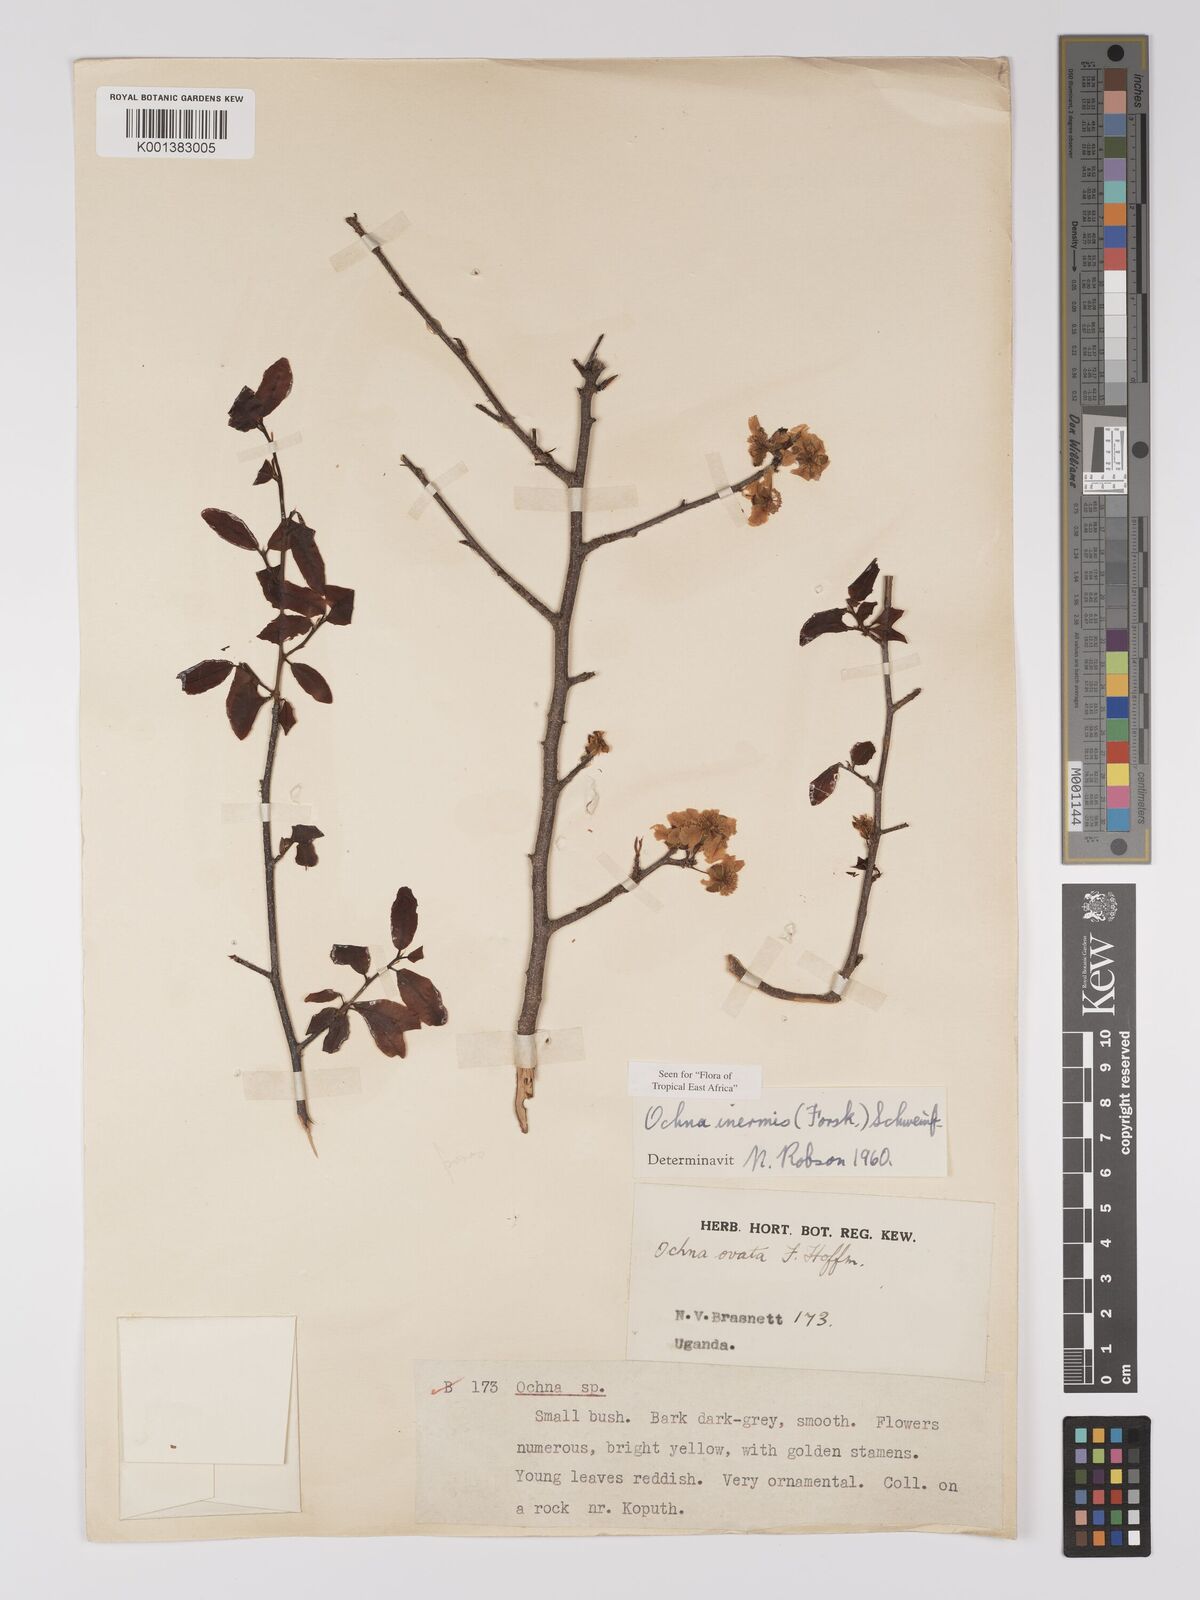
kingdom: Plantae
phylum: Tracheophyta
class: Magnoliopsida
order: Malpighiales
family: Ochnaceae
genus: Ochna
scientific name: Ochna inermis
